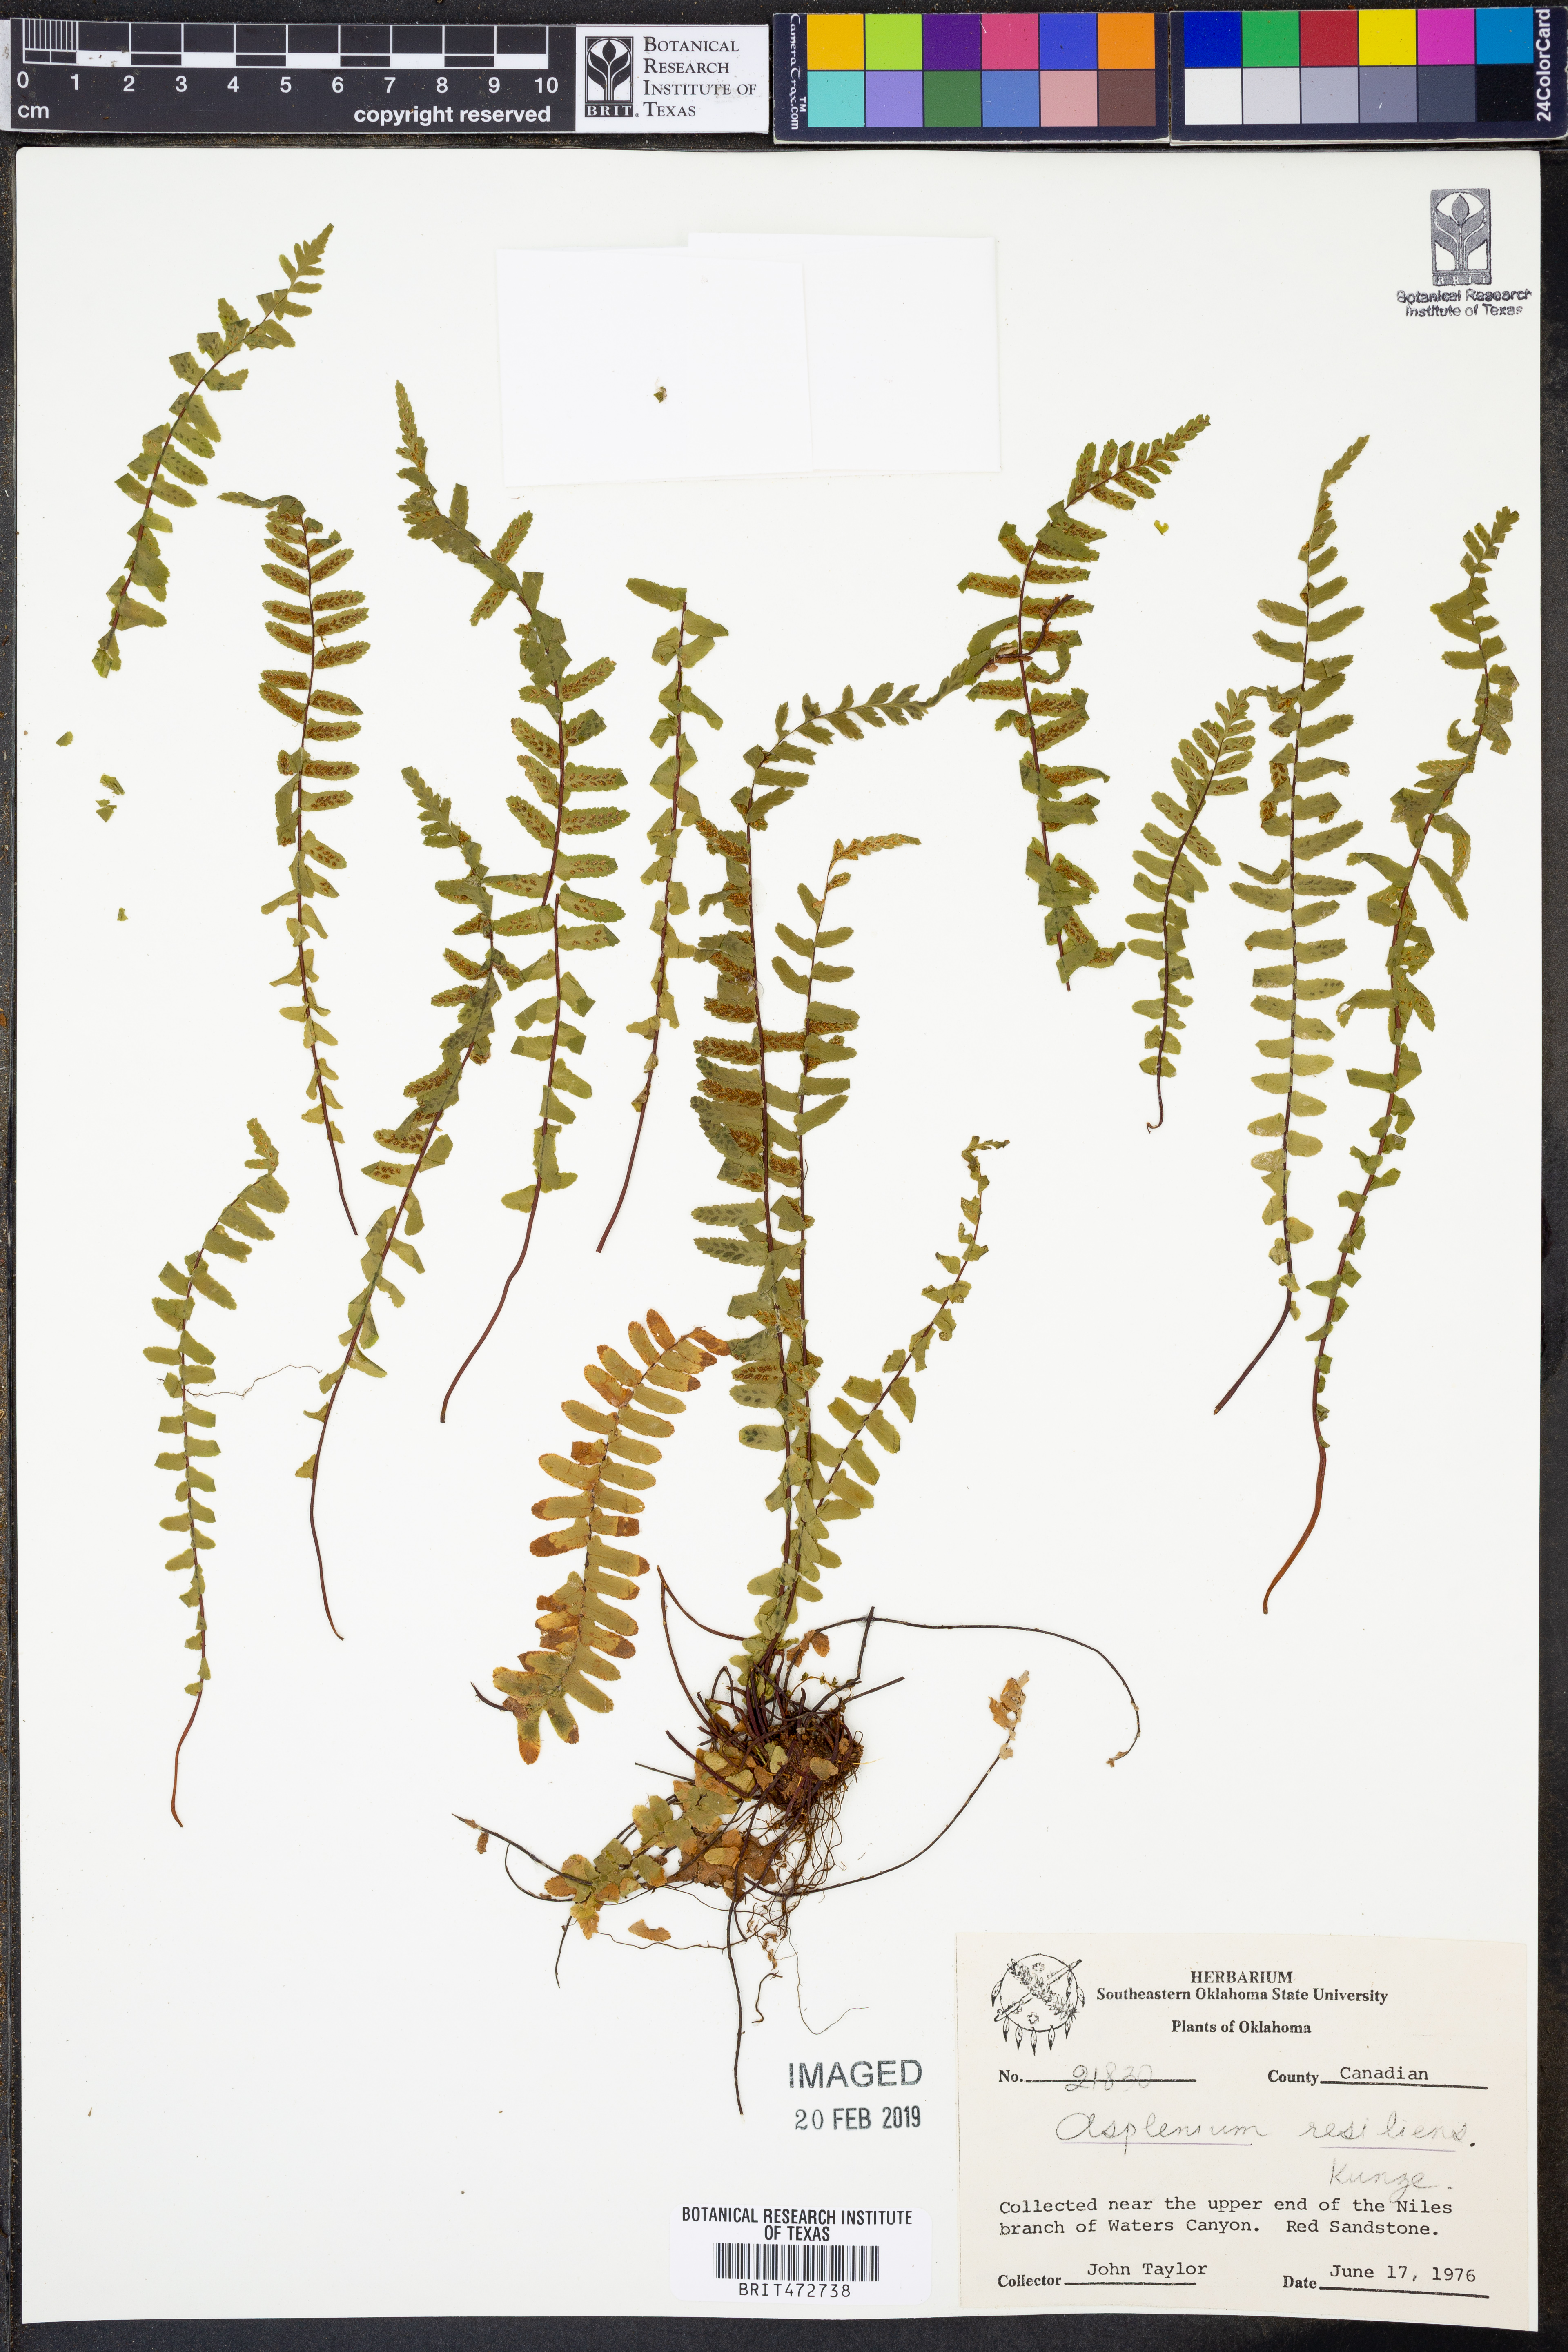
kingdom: Plantae
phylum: Tracheophyta
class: Polypodiopsida
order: Polypodiales
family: Aspleniaceae
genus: Asplenium
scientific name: Asplenium resiliens
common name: Blackstem spleenwort
